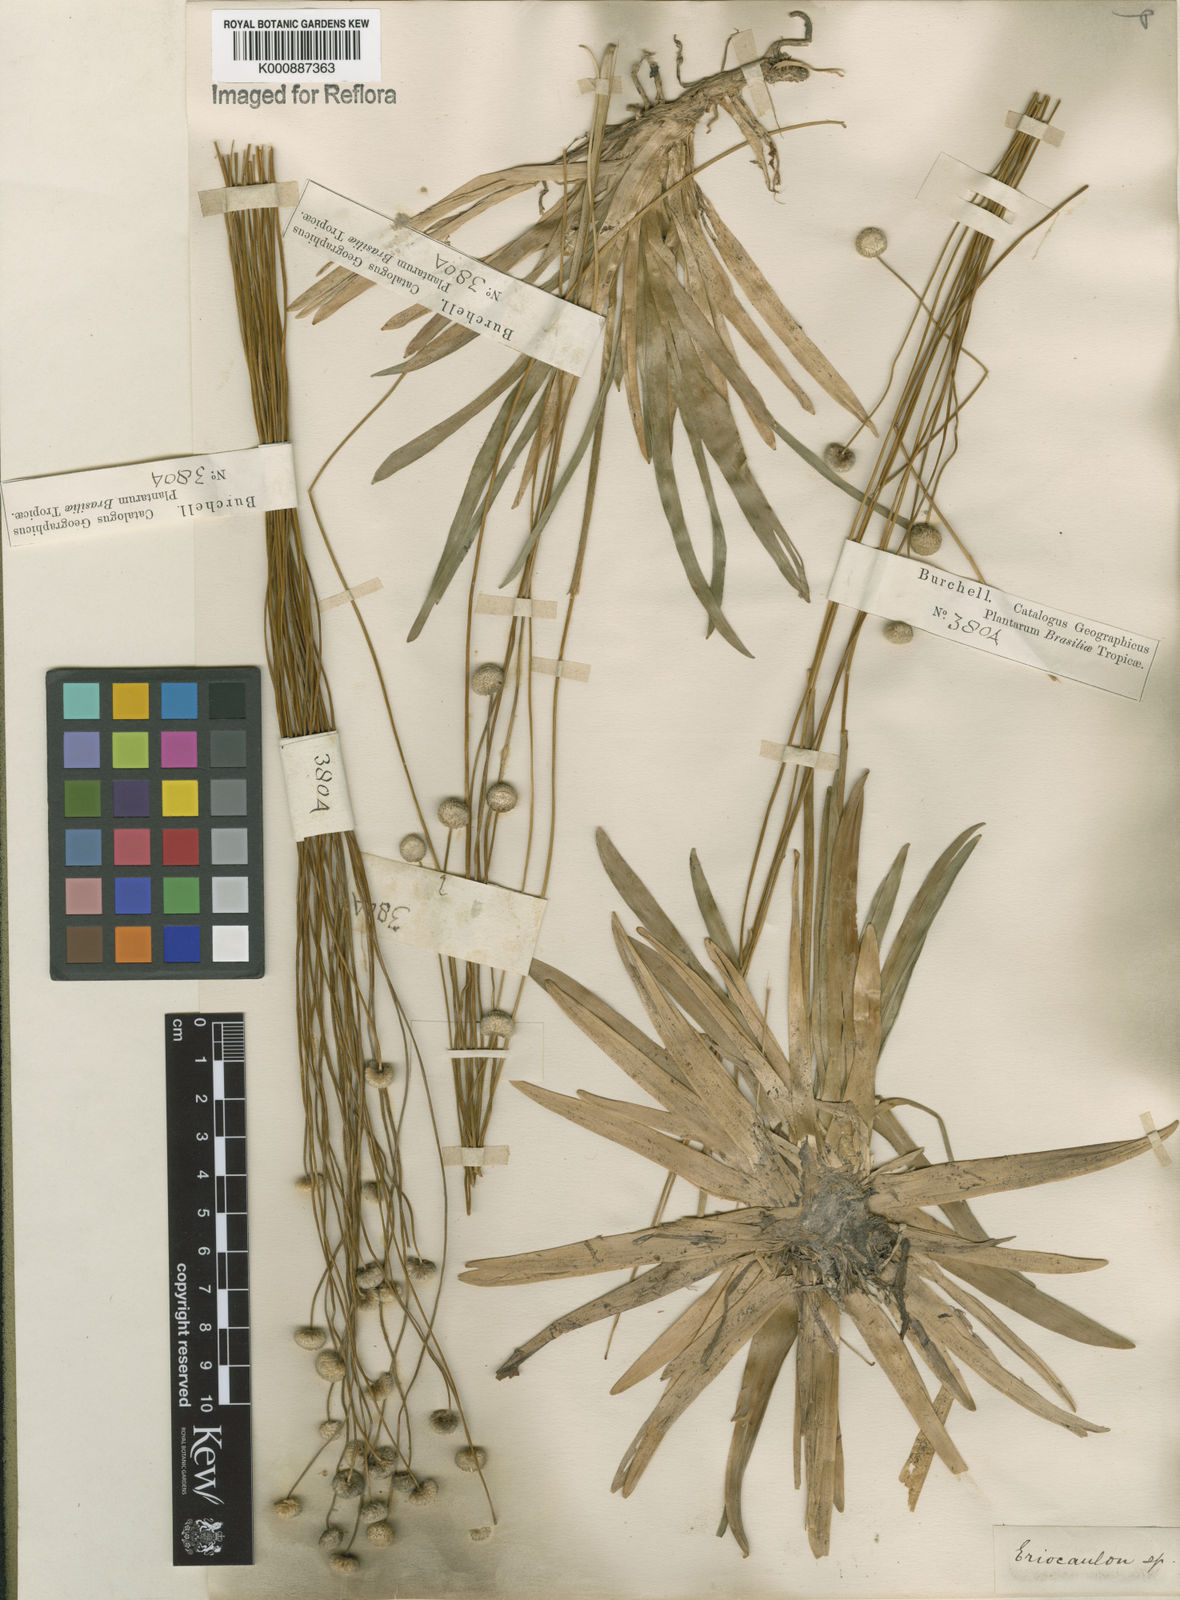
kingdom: Plantae
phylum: Tracheophyta
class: Liliopsida
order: Poales
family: Eriocaulaceae
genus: Leiothrix
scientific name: Leiothrix flavescens
